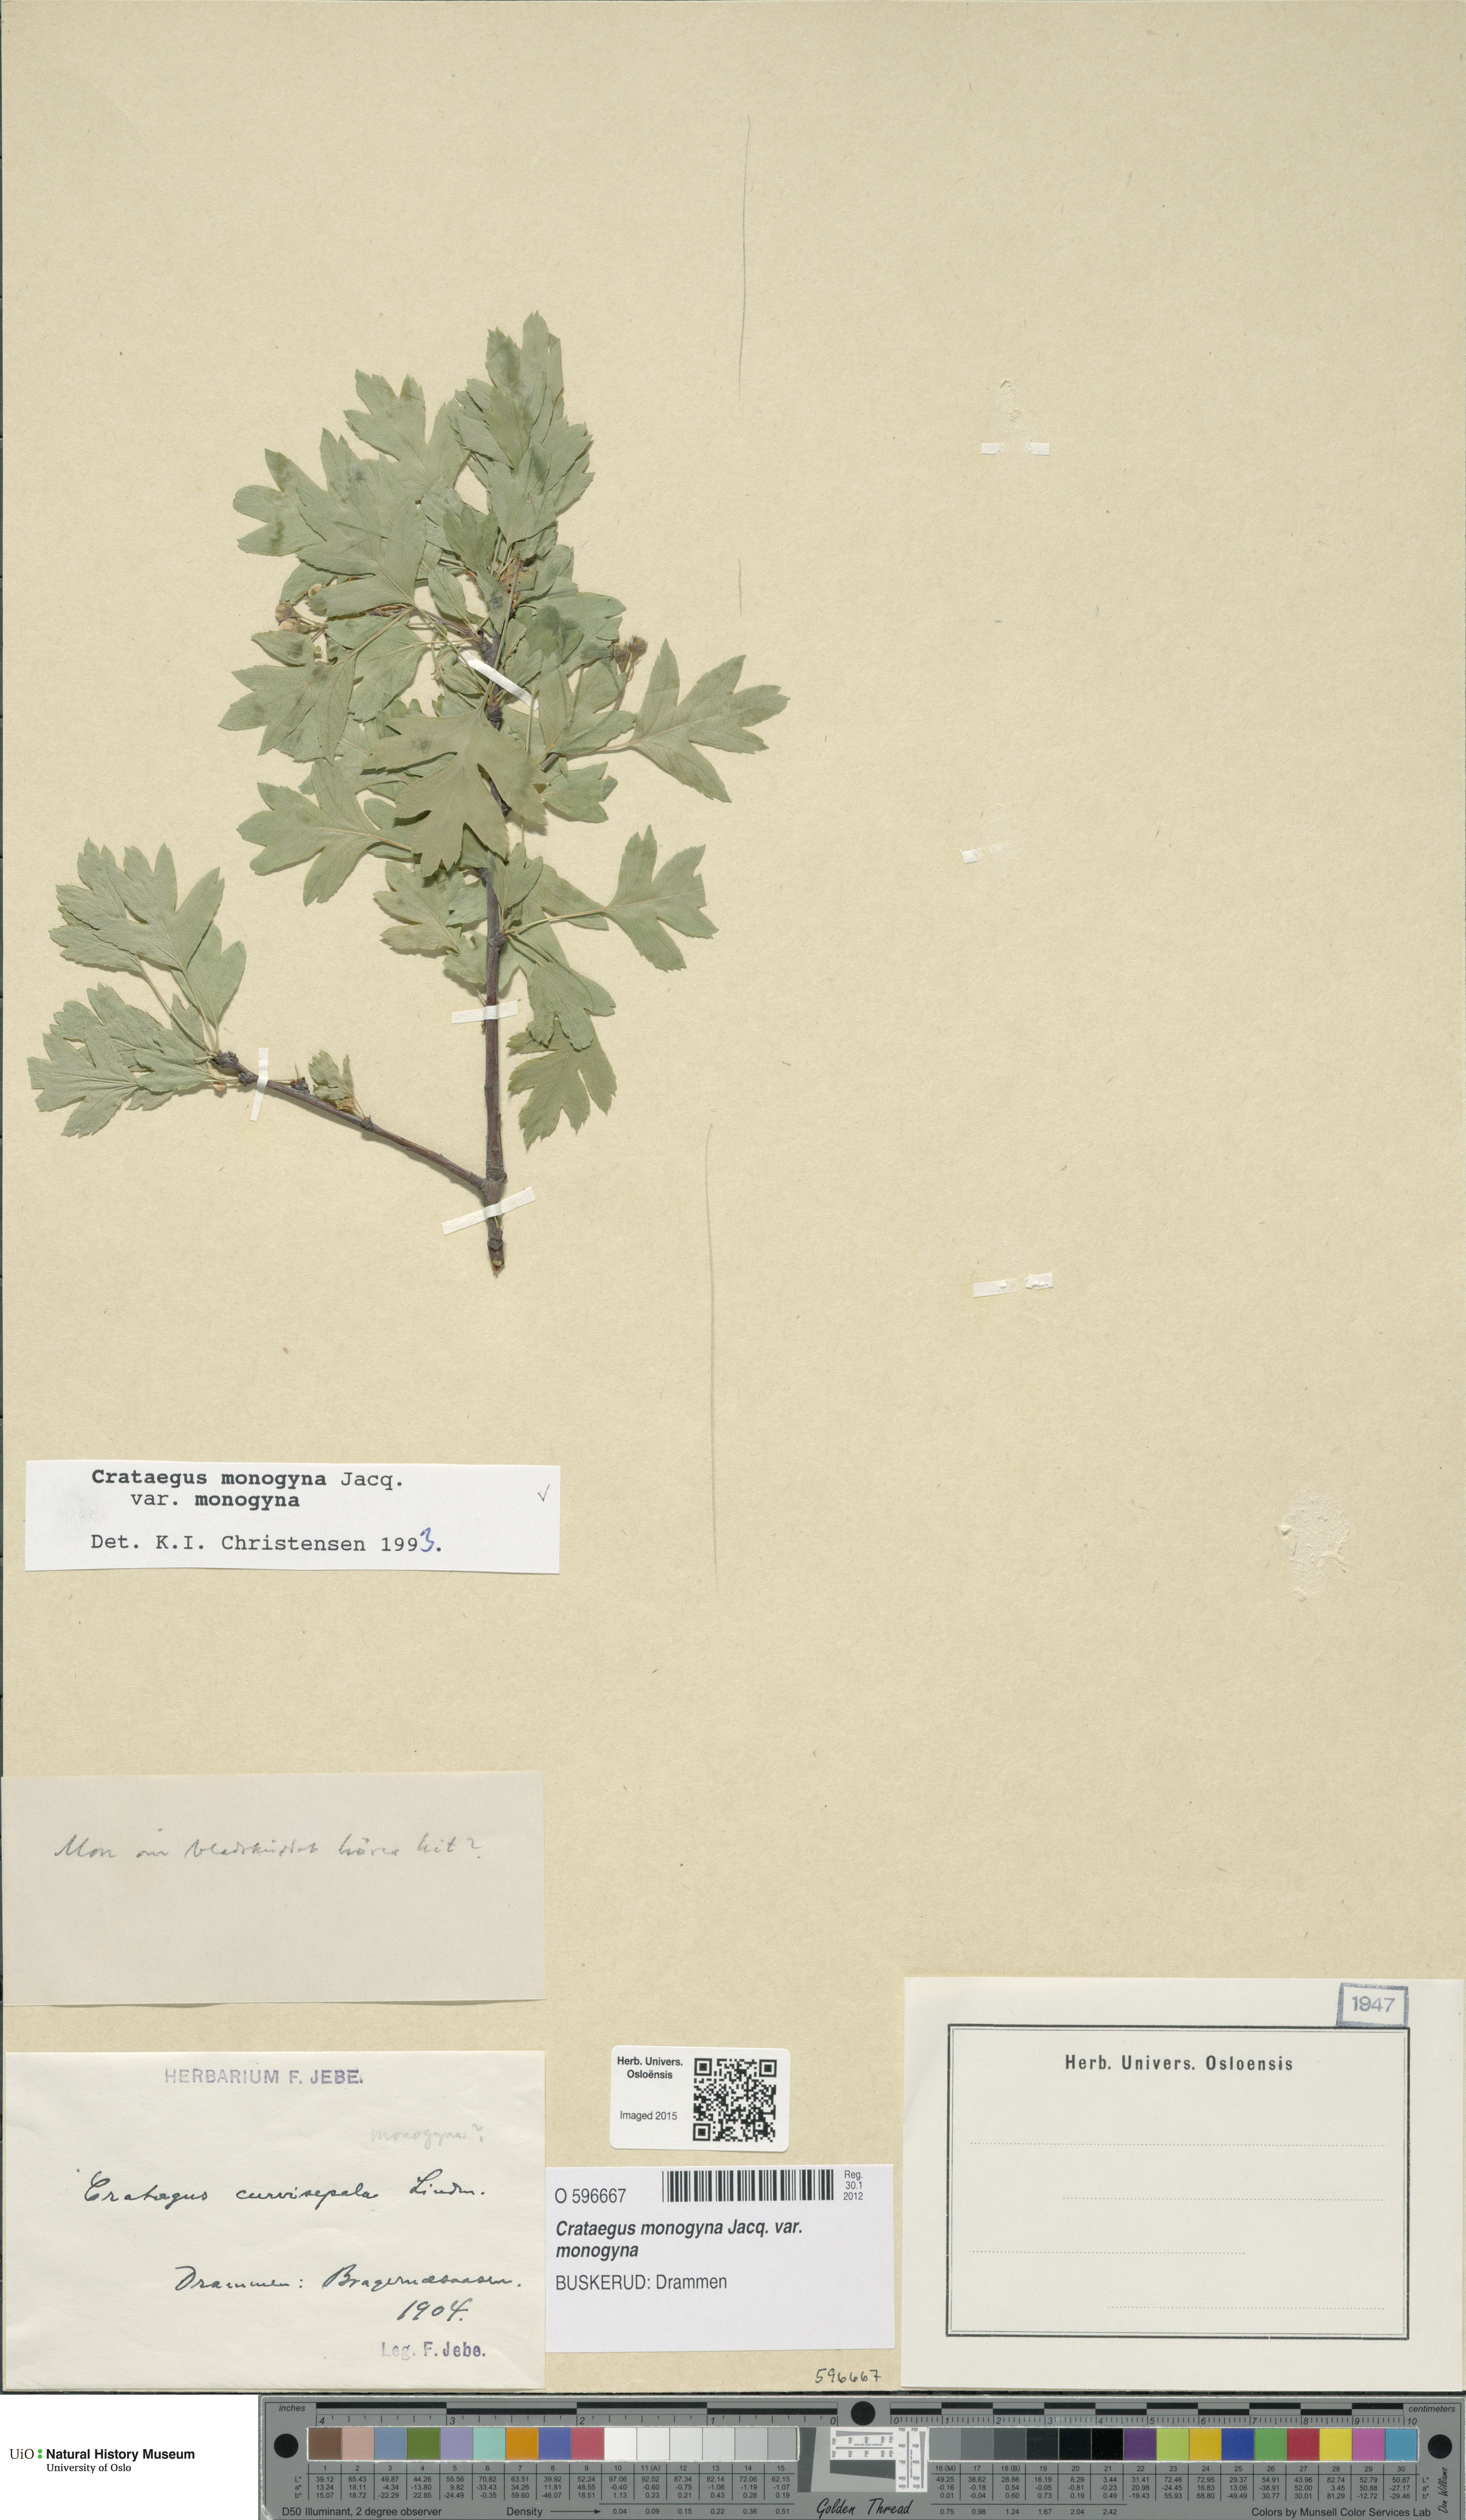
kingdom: Plantae
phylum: Tracheophyta
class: Magnoliopsida
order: Rosales
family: Rosaceae
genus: Crataegus
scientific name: Crataegus monogyna
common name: Hawthorn
